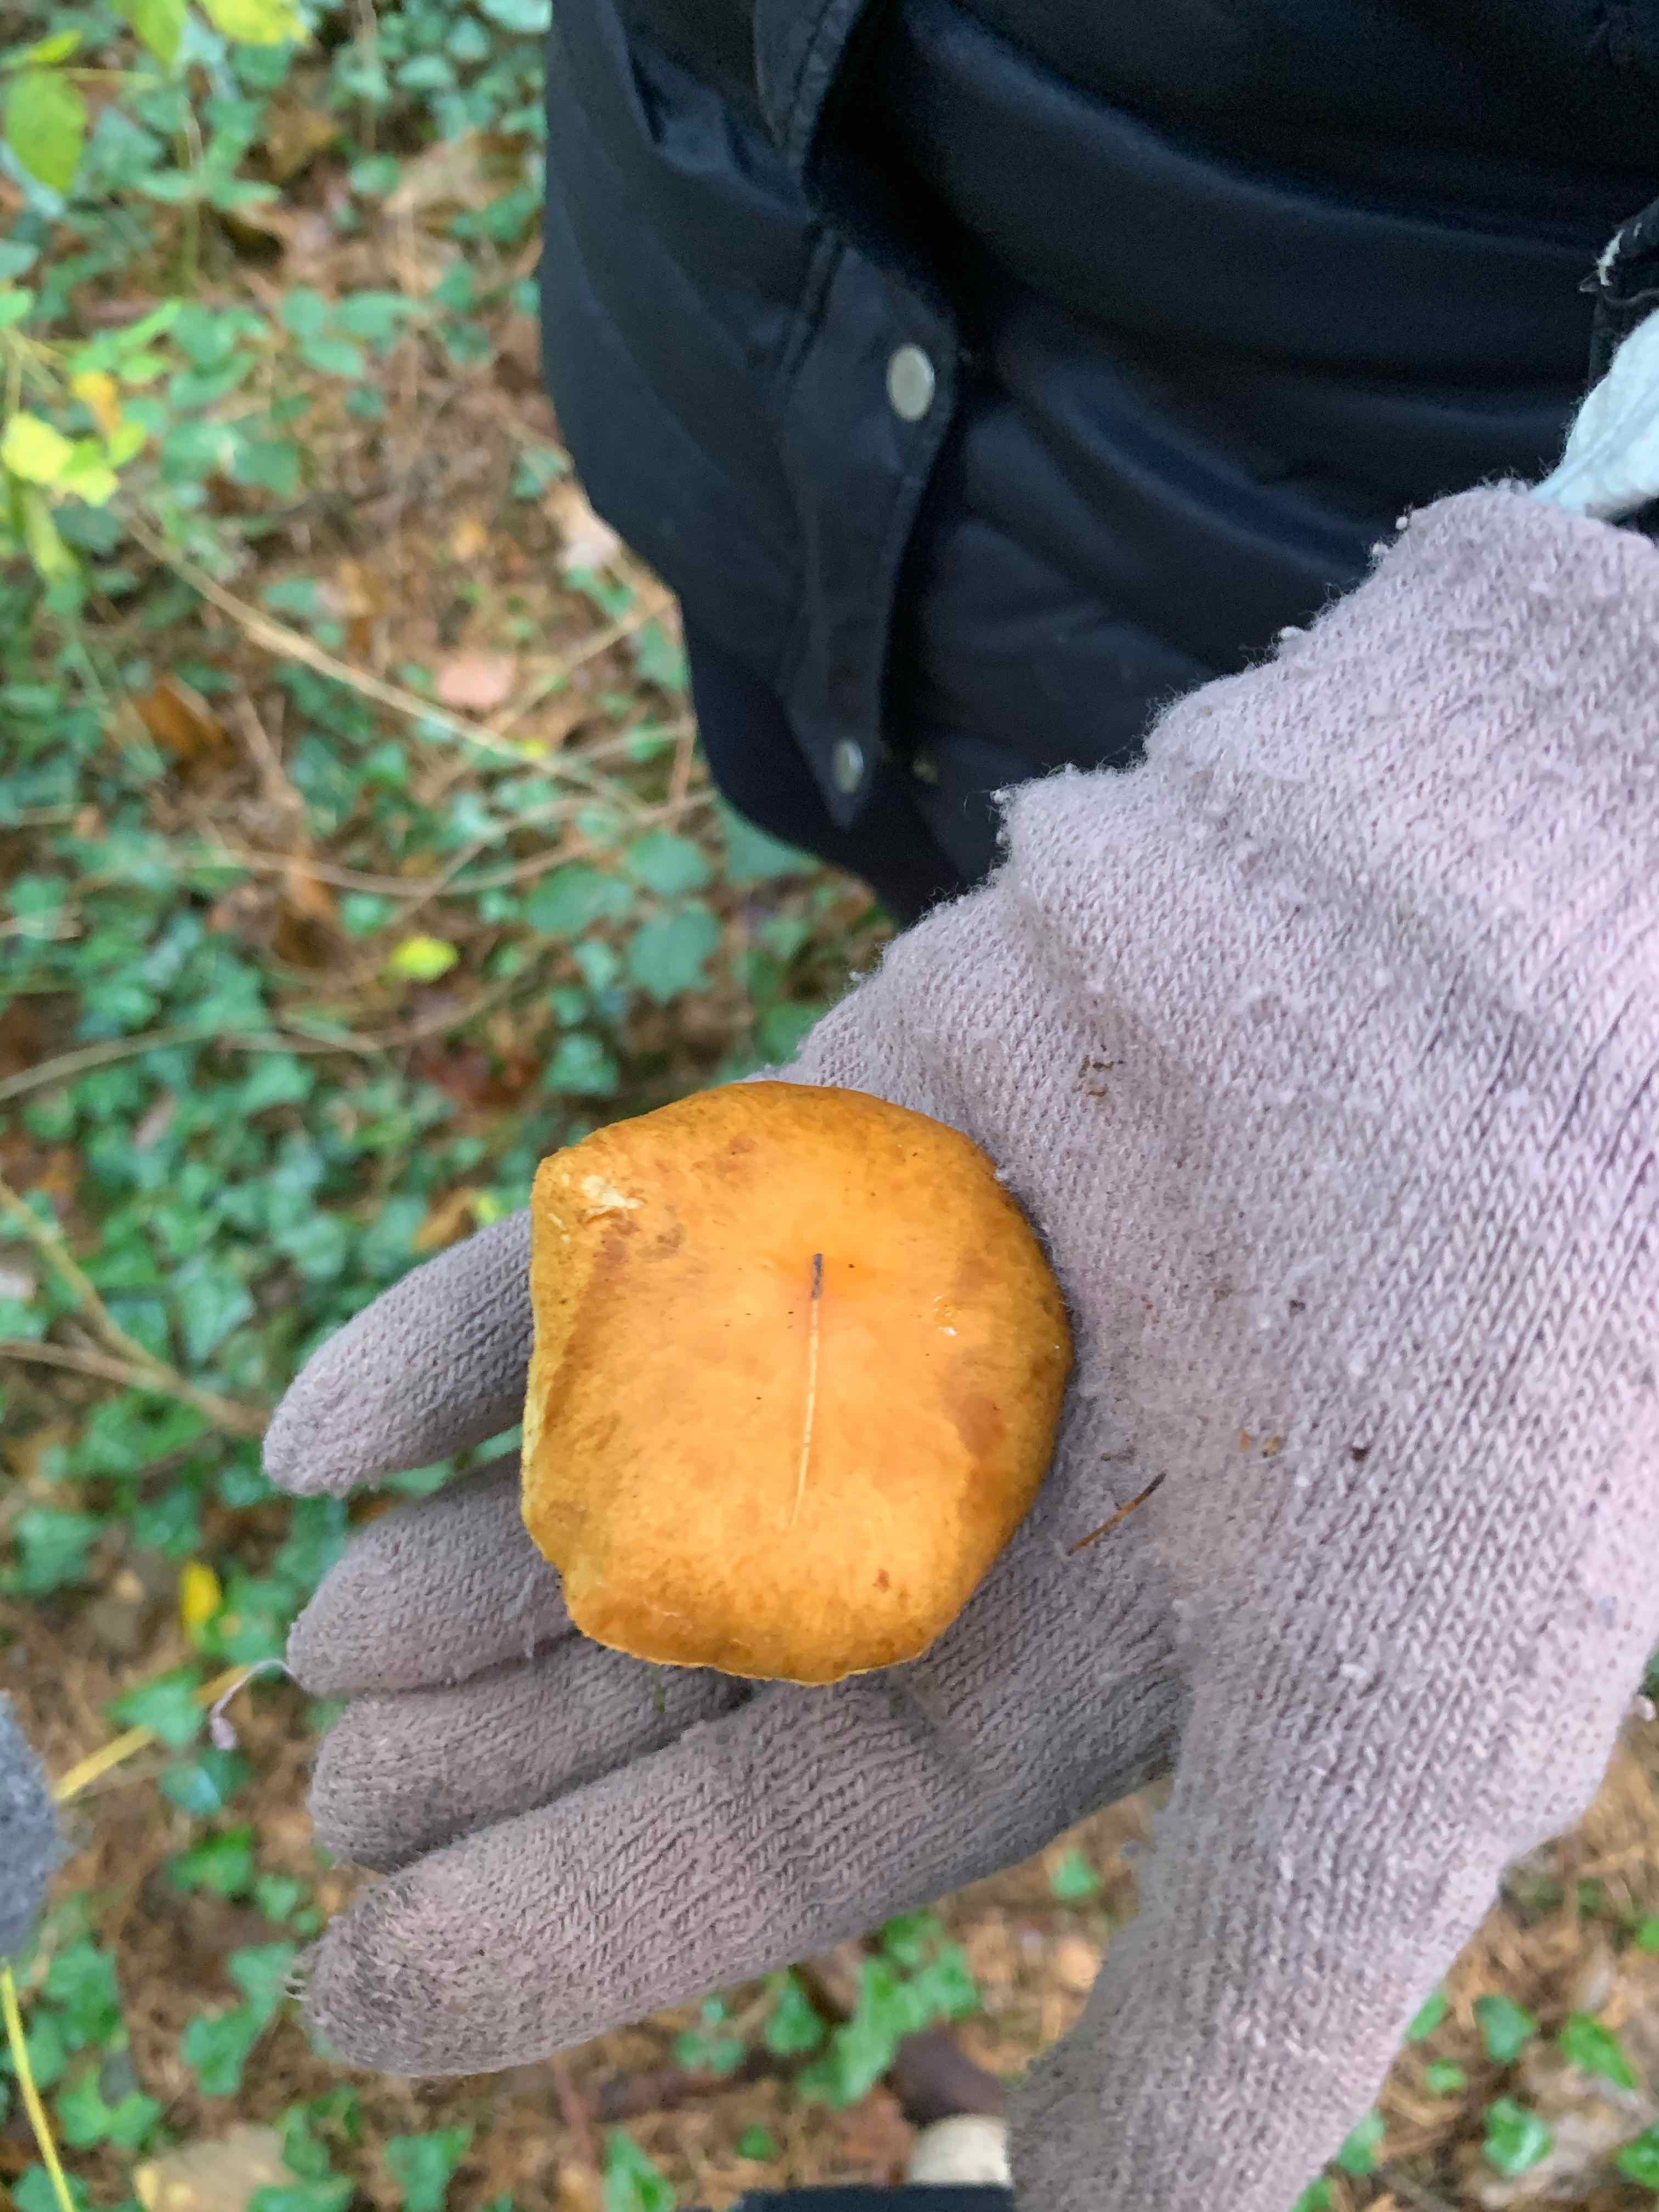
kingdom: Fungi
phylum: Basidiomycota
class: Agaricomycetes
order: Agaricales
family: Hymenogastraceae
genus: Gymnopilus
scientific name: Gymnopilus penetrans
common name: plettet flammehat
